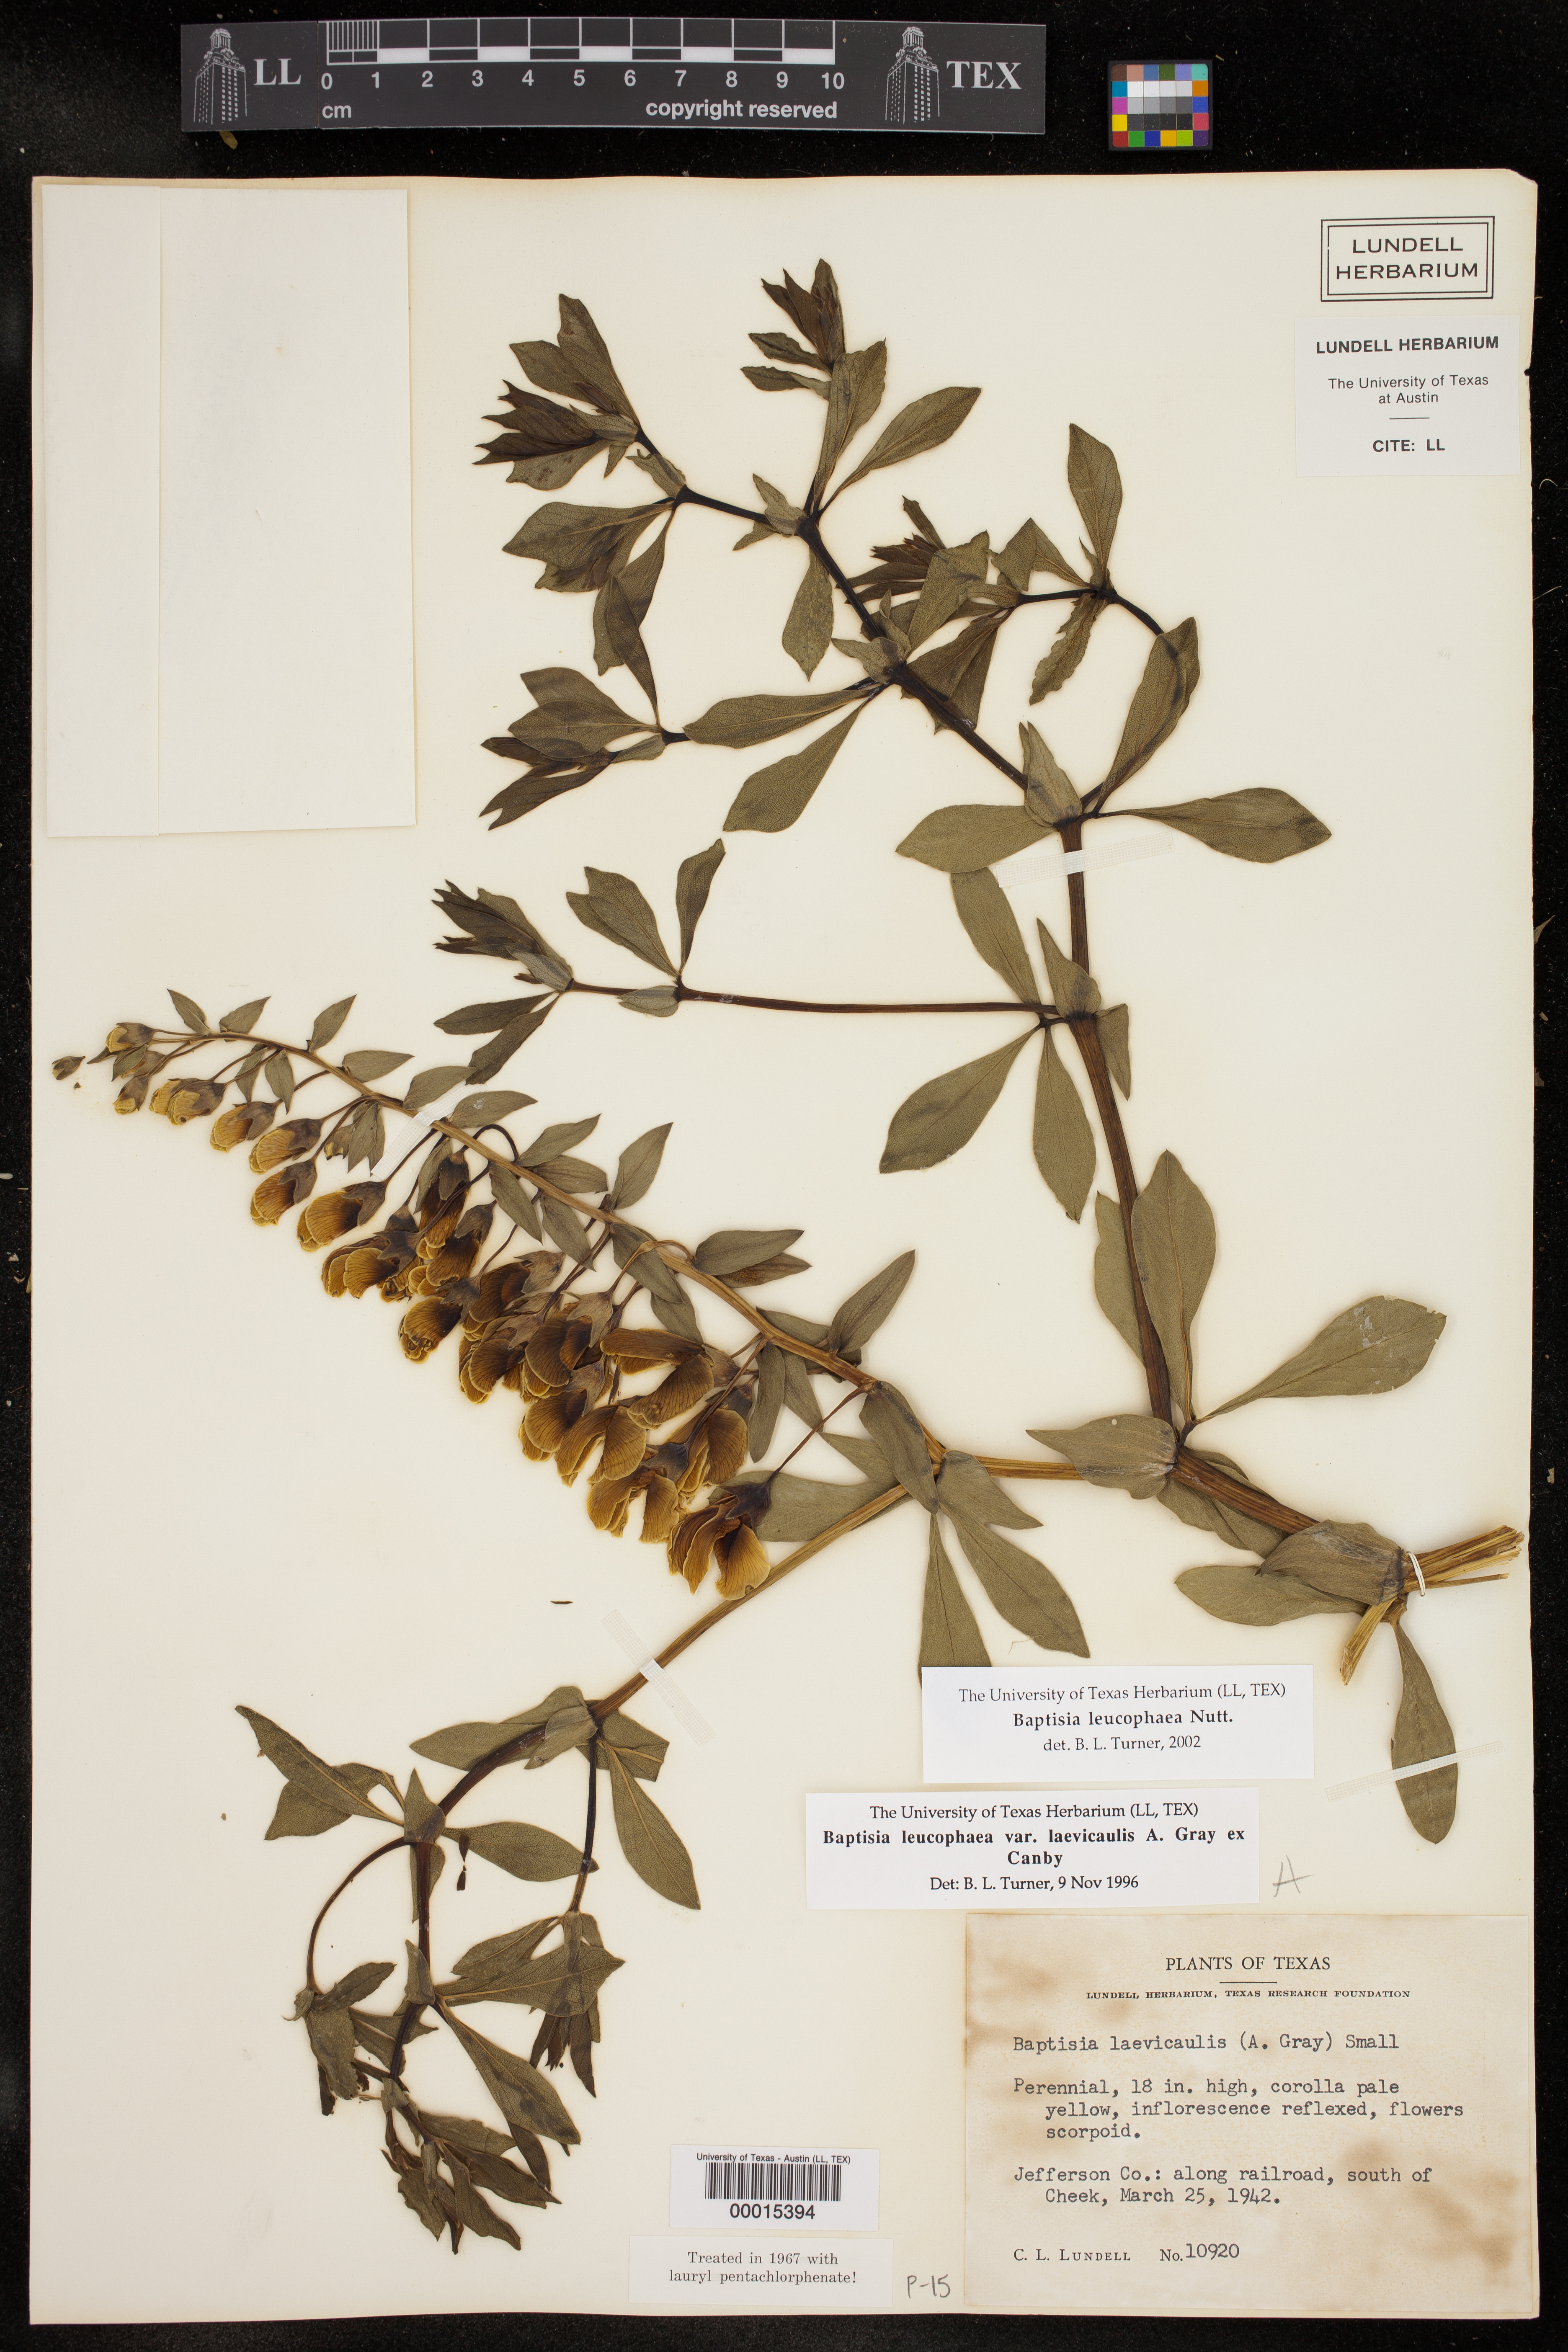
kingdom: Plantae
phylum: Tracheophyta
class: Magnoliopsida
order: Fabales
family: Fabaceae
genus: Baptisia
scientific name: Baptisia bracteata
